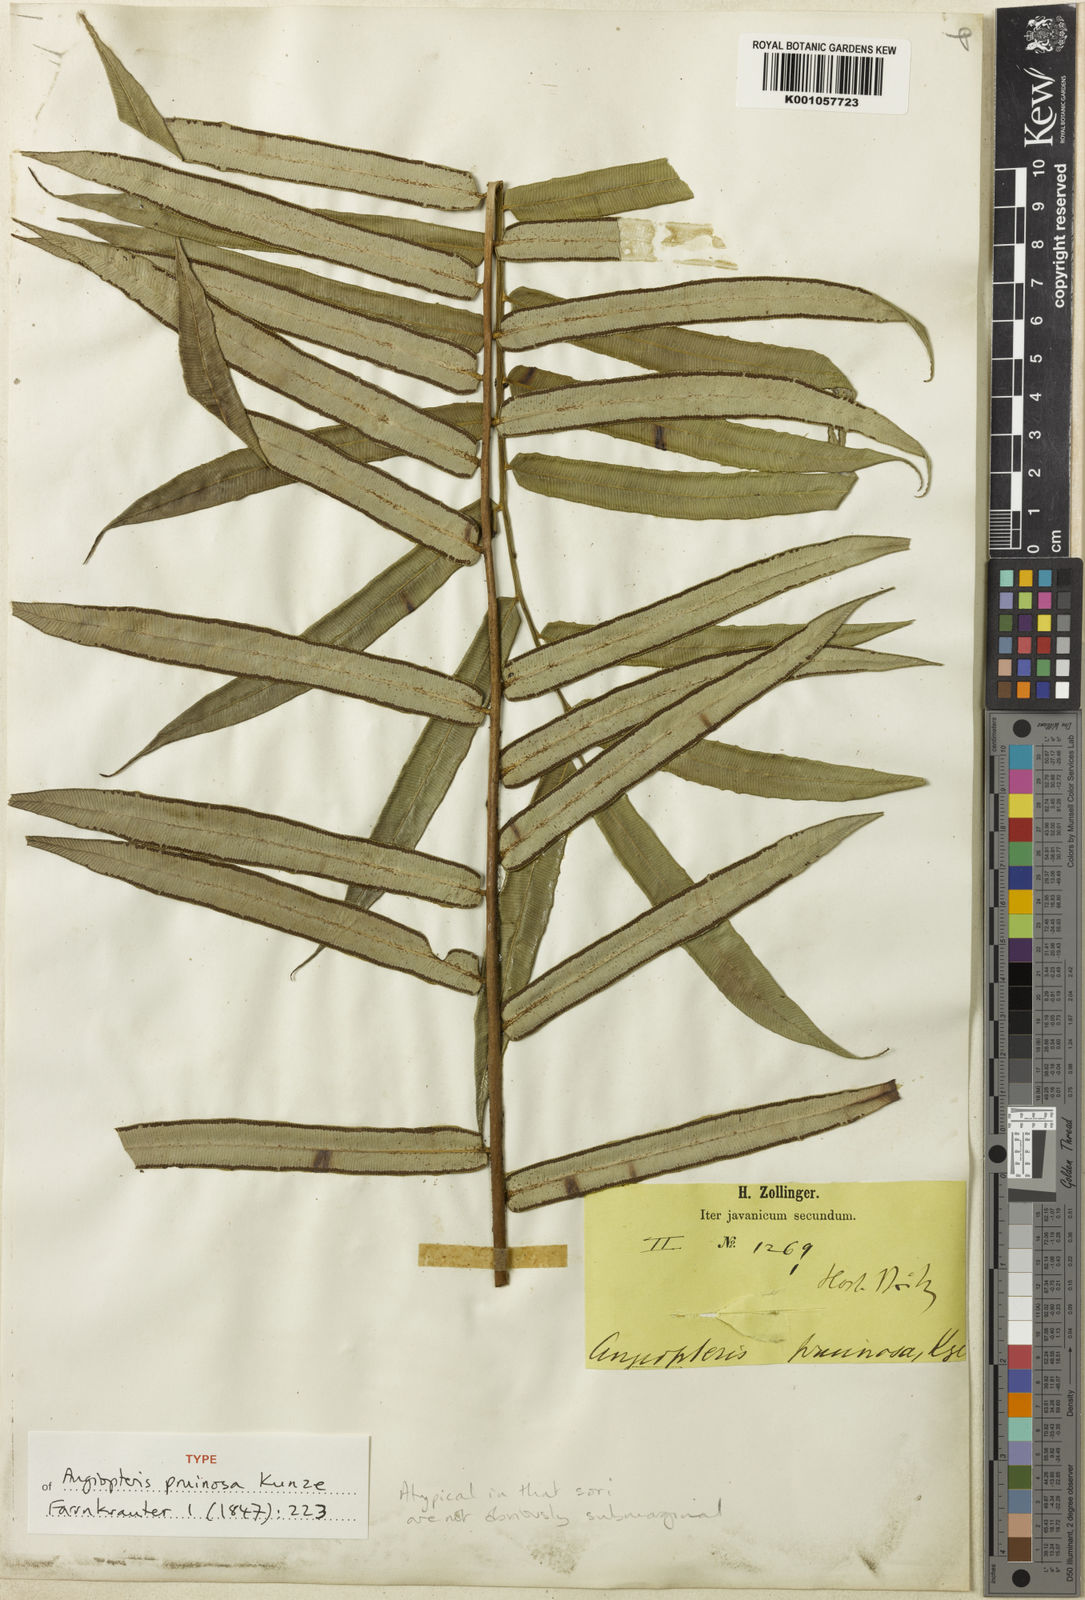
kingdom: Plantae
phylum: Tracheophyta
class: Polypodiopsida
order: Marattiales
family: Marattiaceae
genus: Angiopteris
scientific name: Angiopteris angustifolia
